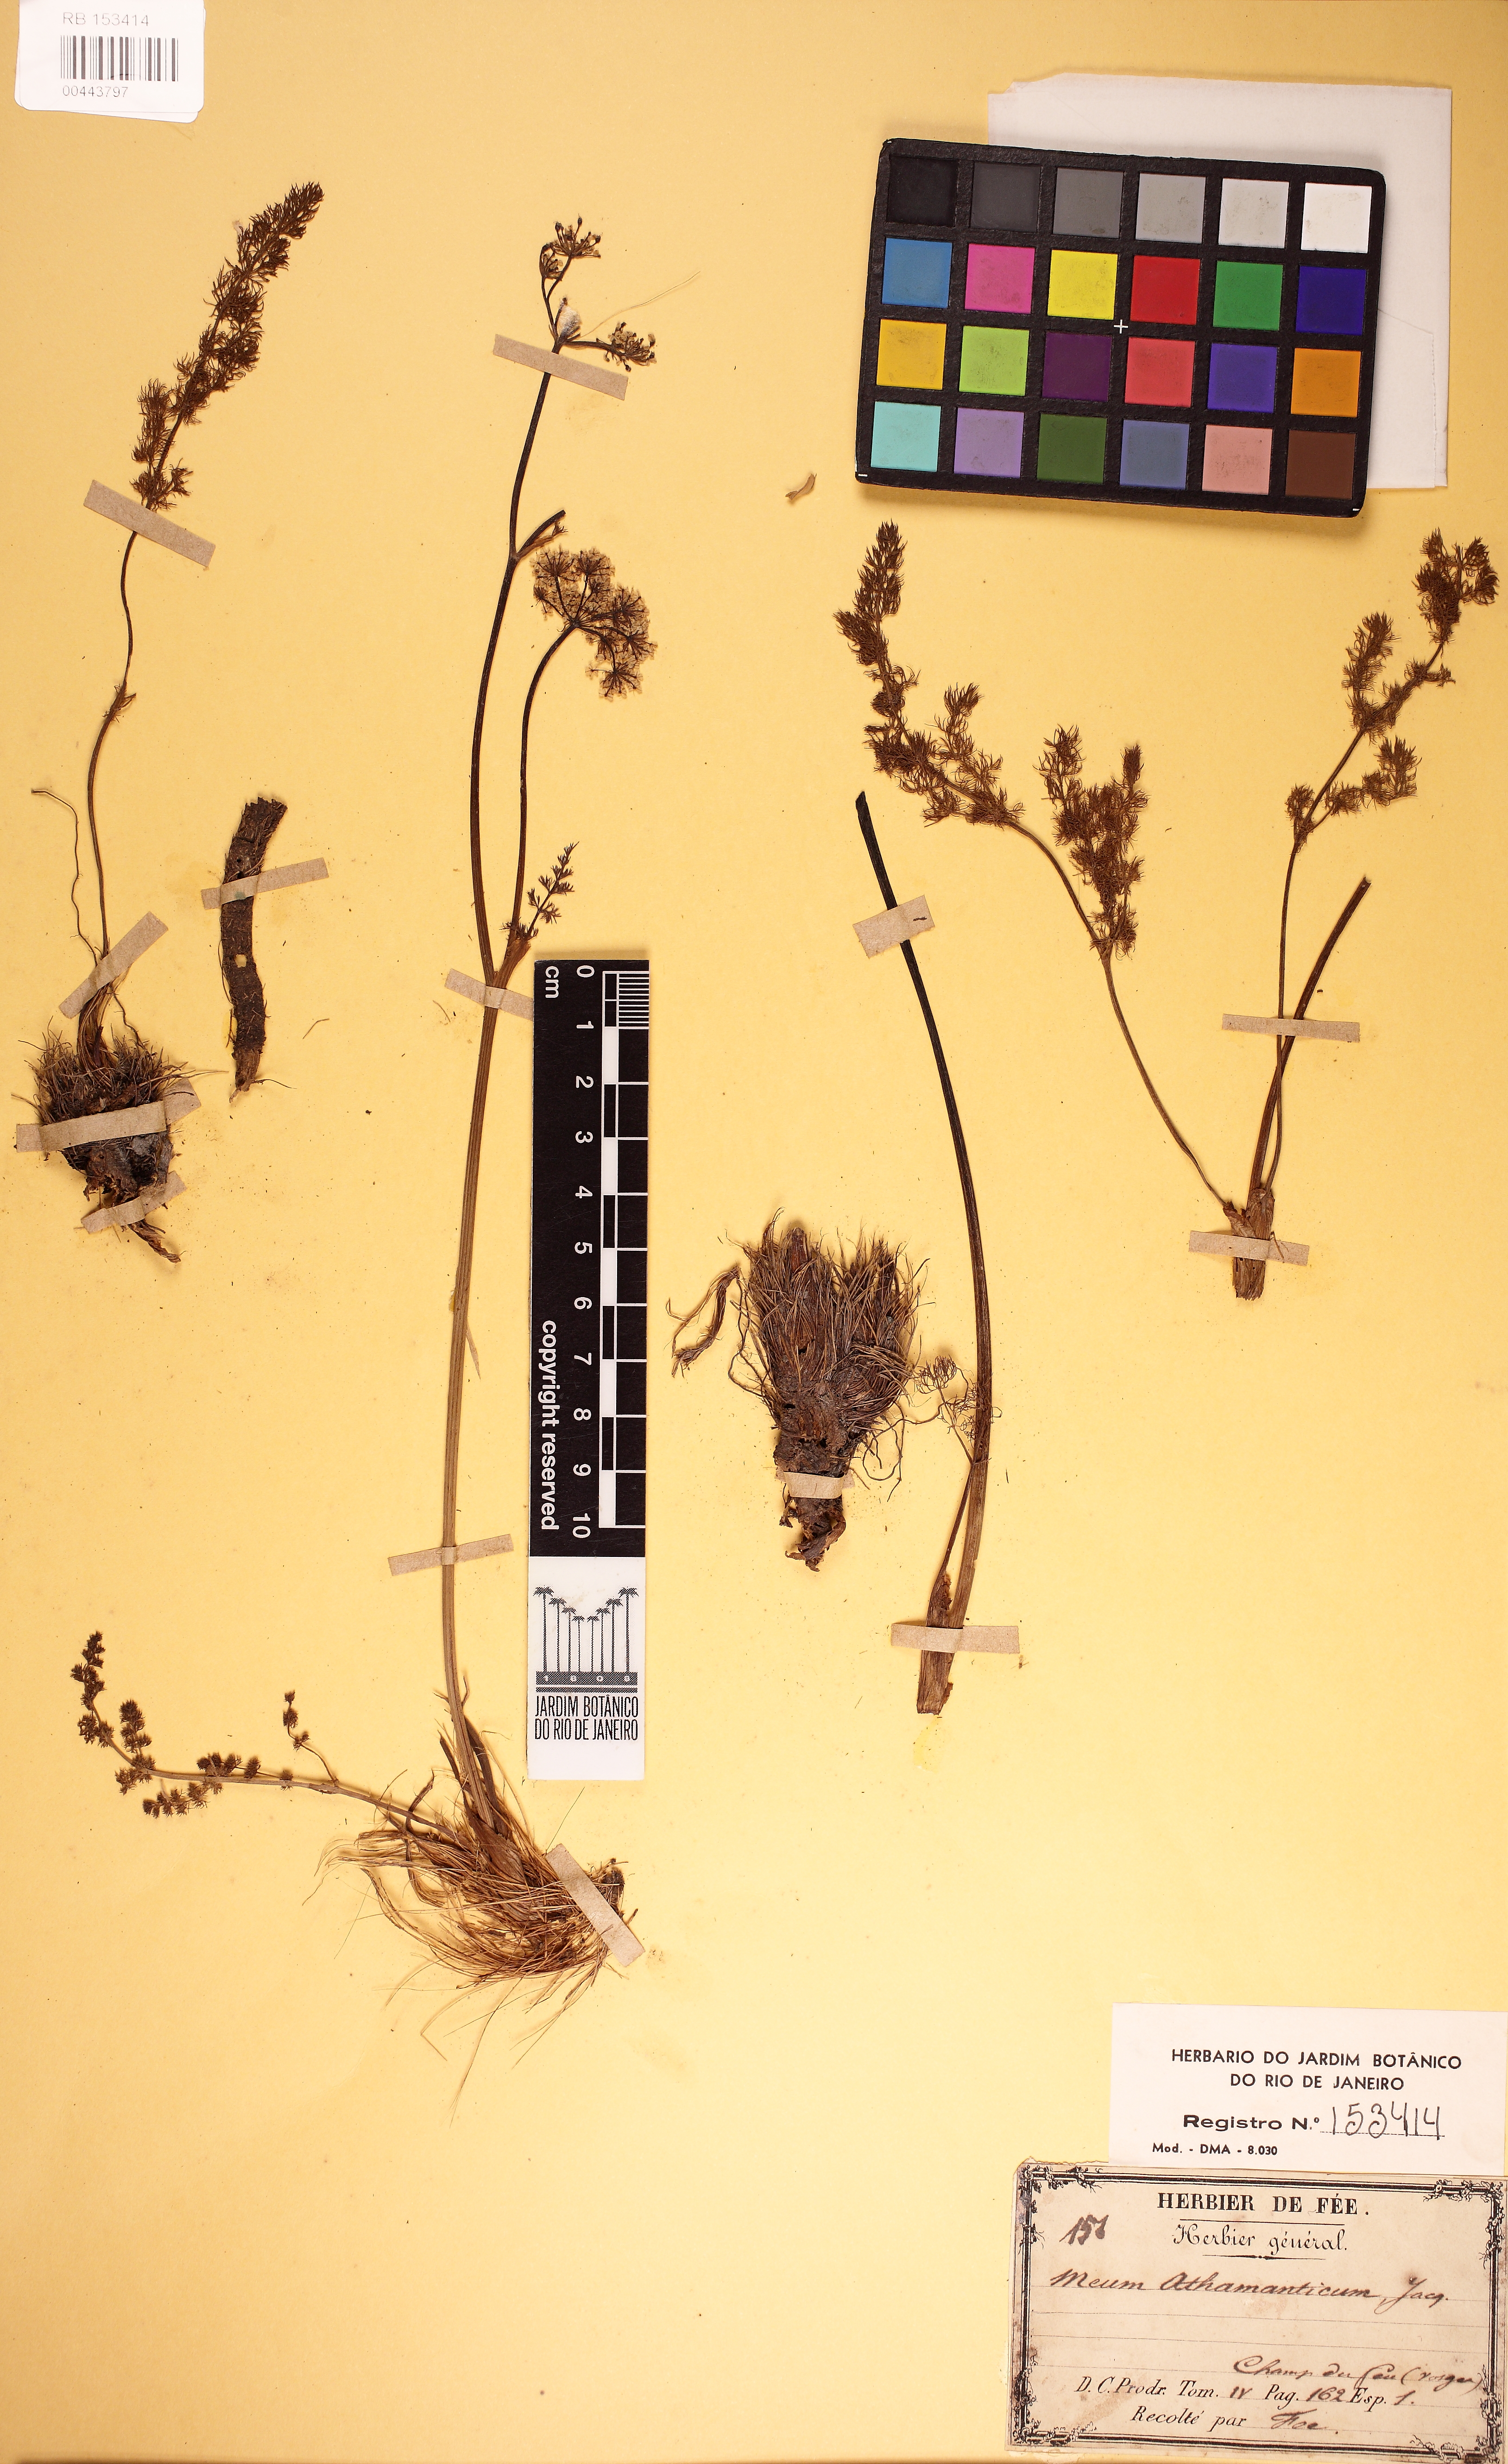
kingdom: Plantae
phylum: Tracheophyta
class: Magnoliopsida
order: Apiales
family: Apiaceae
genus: Meum
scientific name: Meum athamanticum
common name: Spignel
